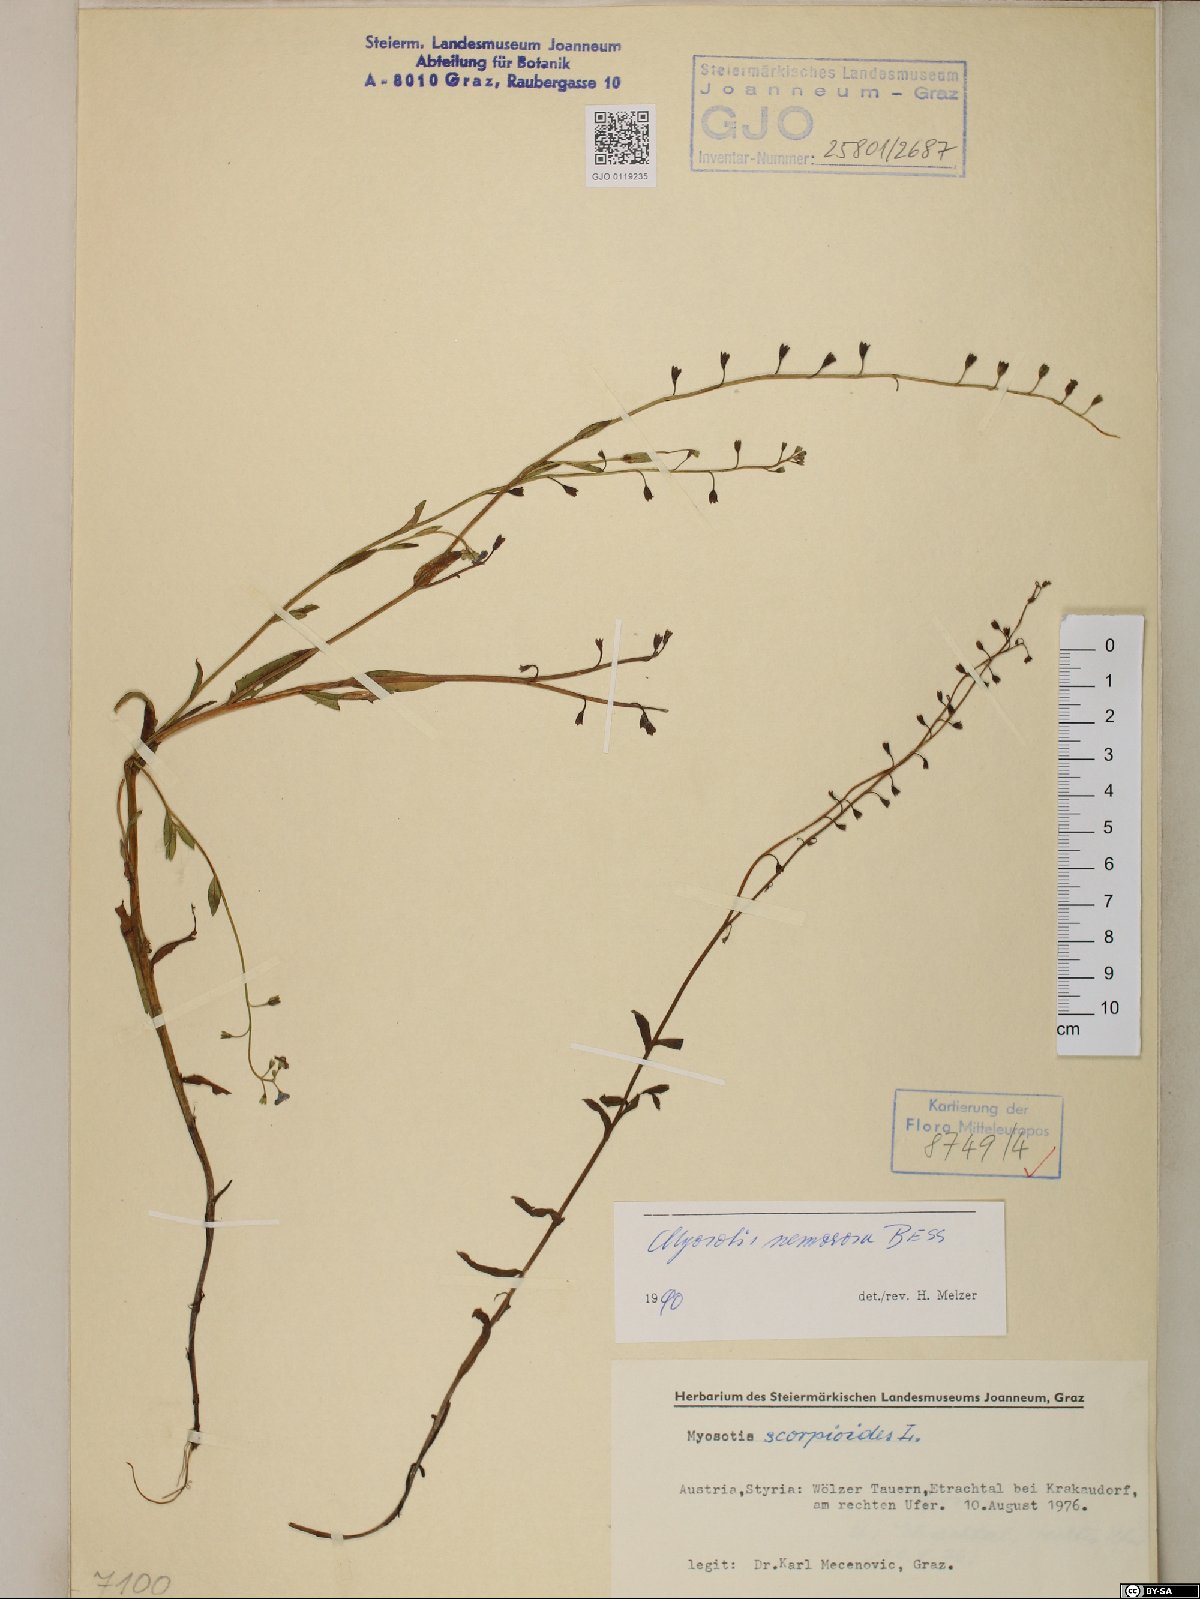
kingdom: Plantae
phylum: Tracheophyta
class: Magnoliopsida
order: Boraginales
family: Boraginaceae
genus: Myosotis
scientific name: Myosotis nemorosa
